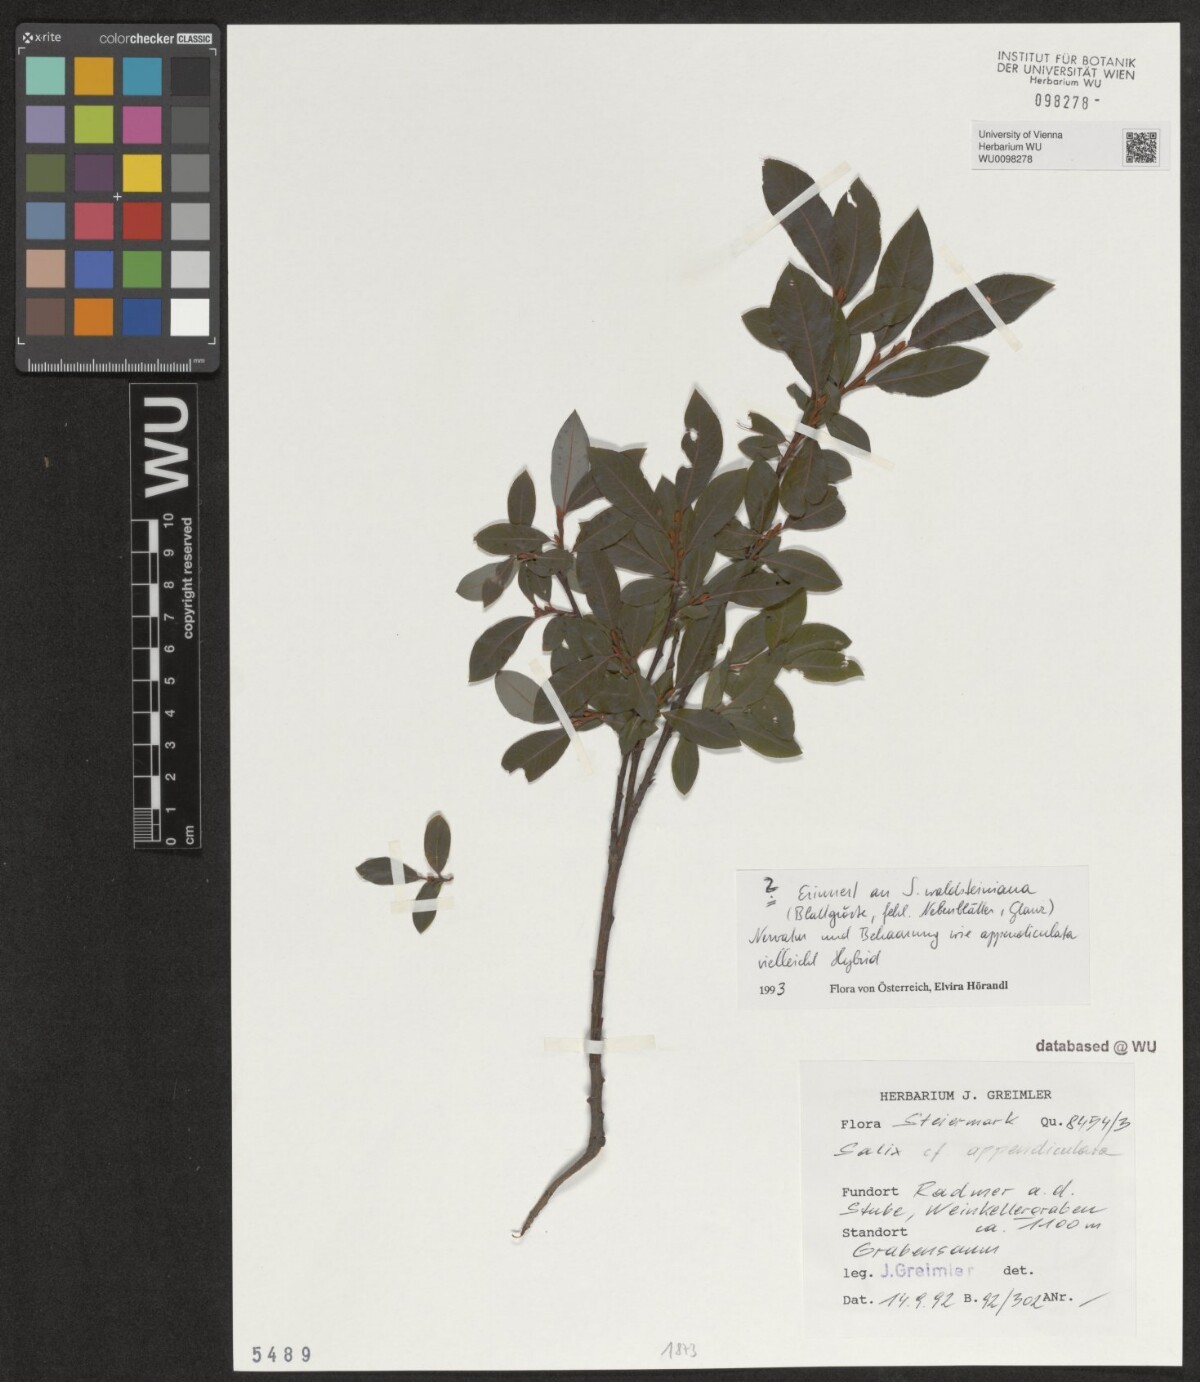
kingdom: Plantae
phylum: Tracheophyta
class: Magnoliopsida
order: Malpighiales
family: Salicaceae
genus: Salix
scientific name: Salix appendiculata
